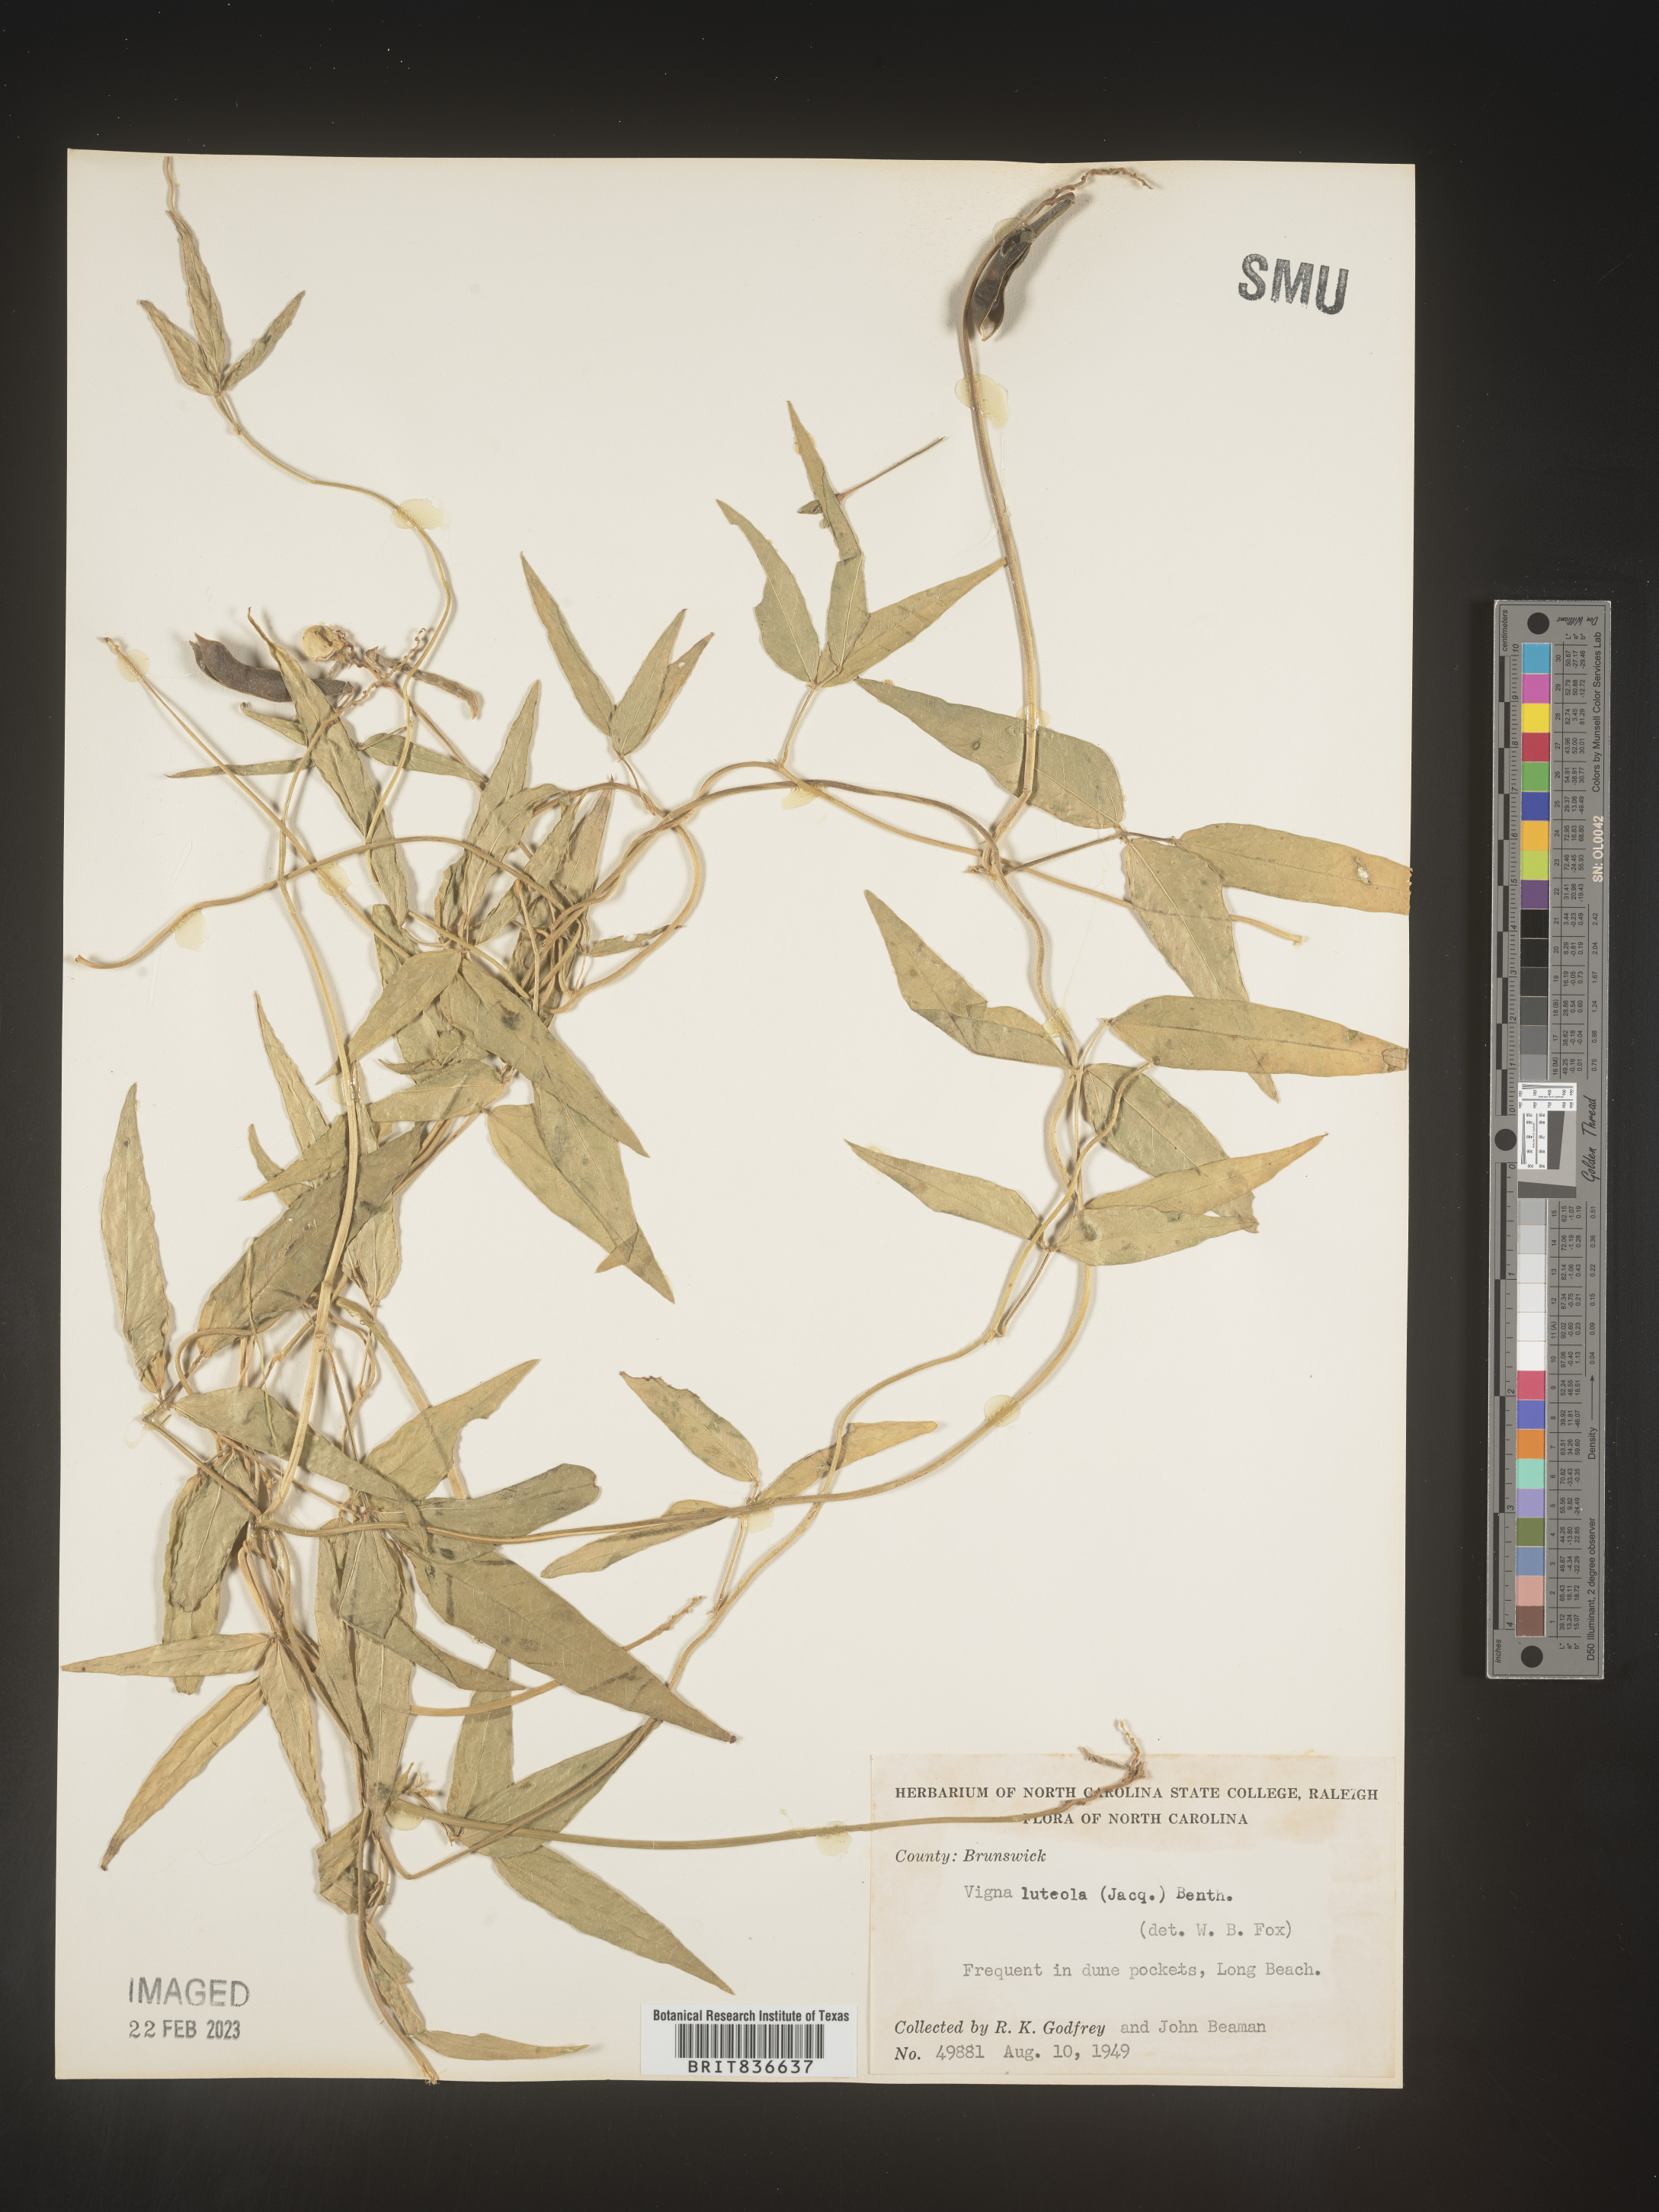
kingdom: Plantae
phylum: Tracheophyta
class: Magnoliopsida
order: Fabales
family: Fabaceae
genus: Vigna
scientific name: Vigna
